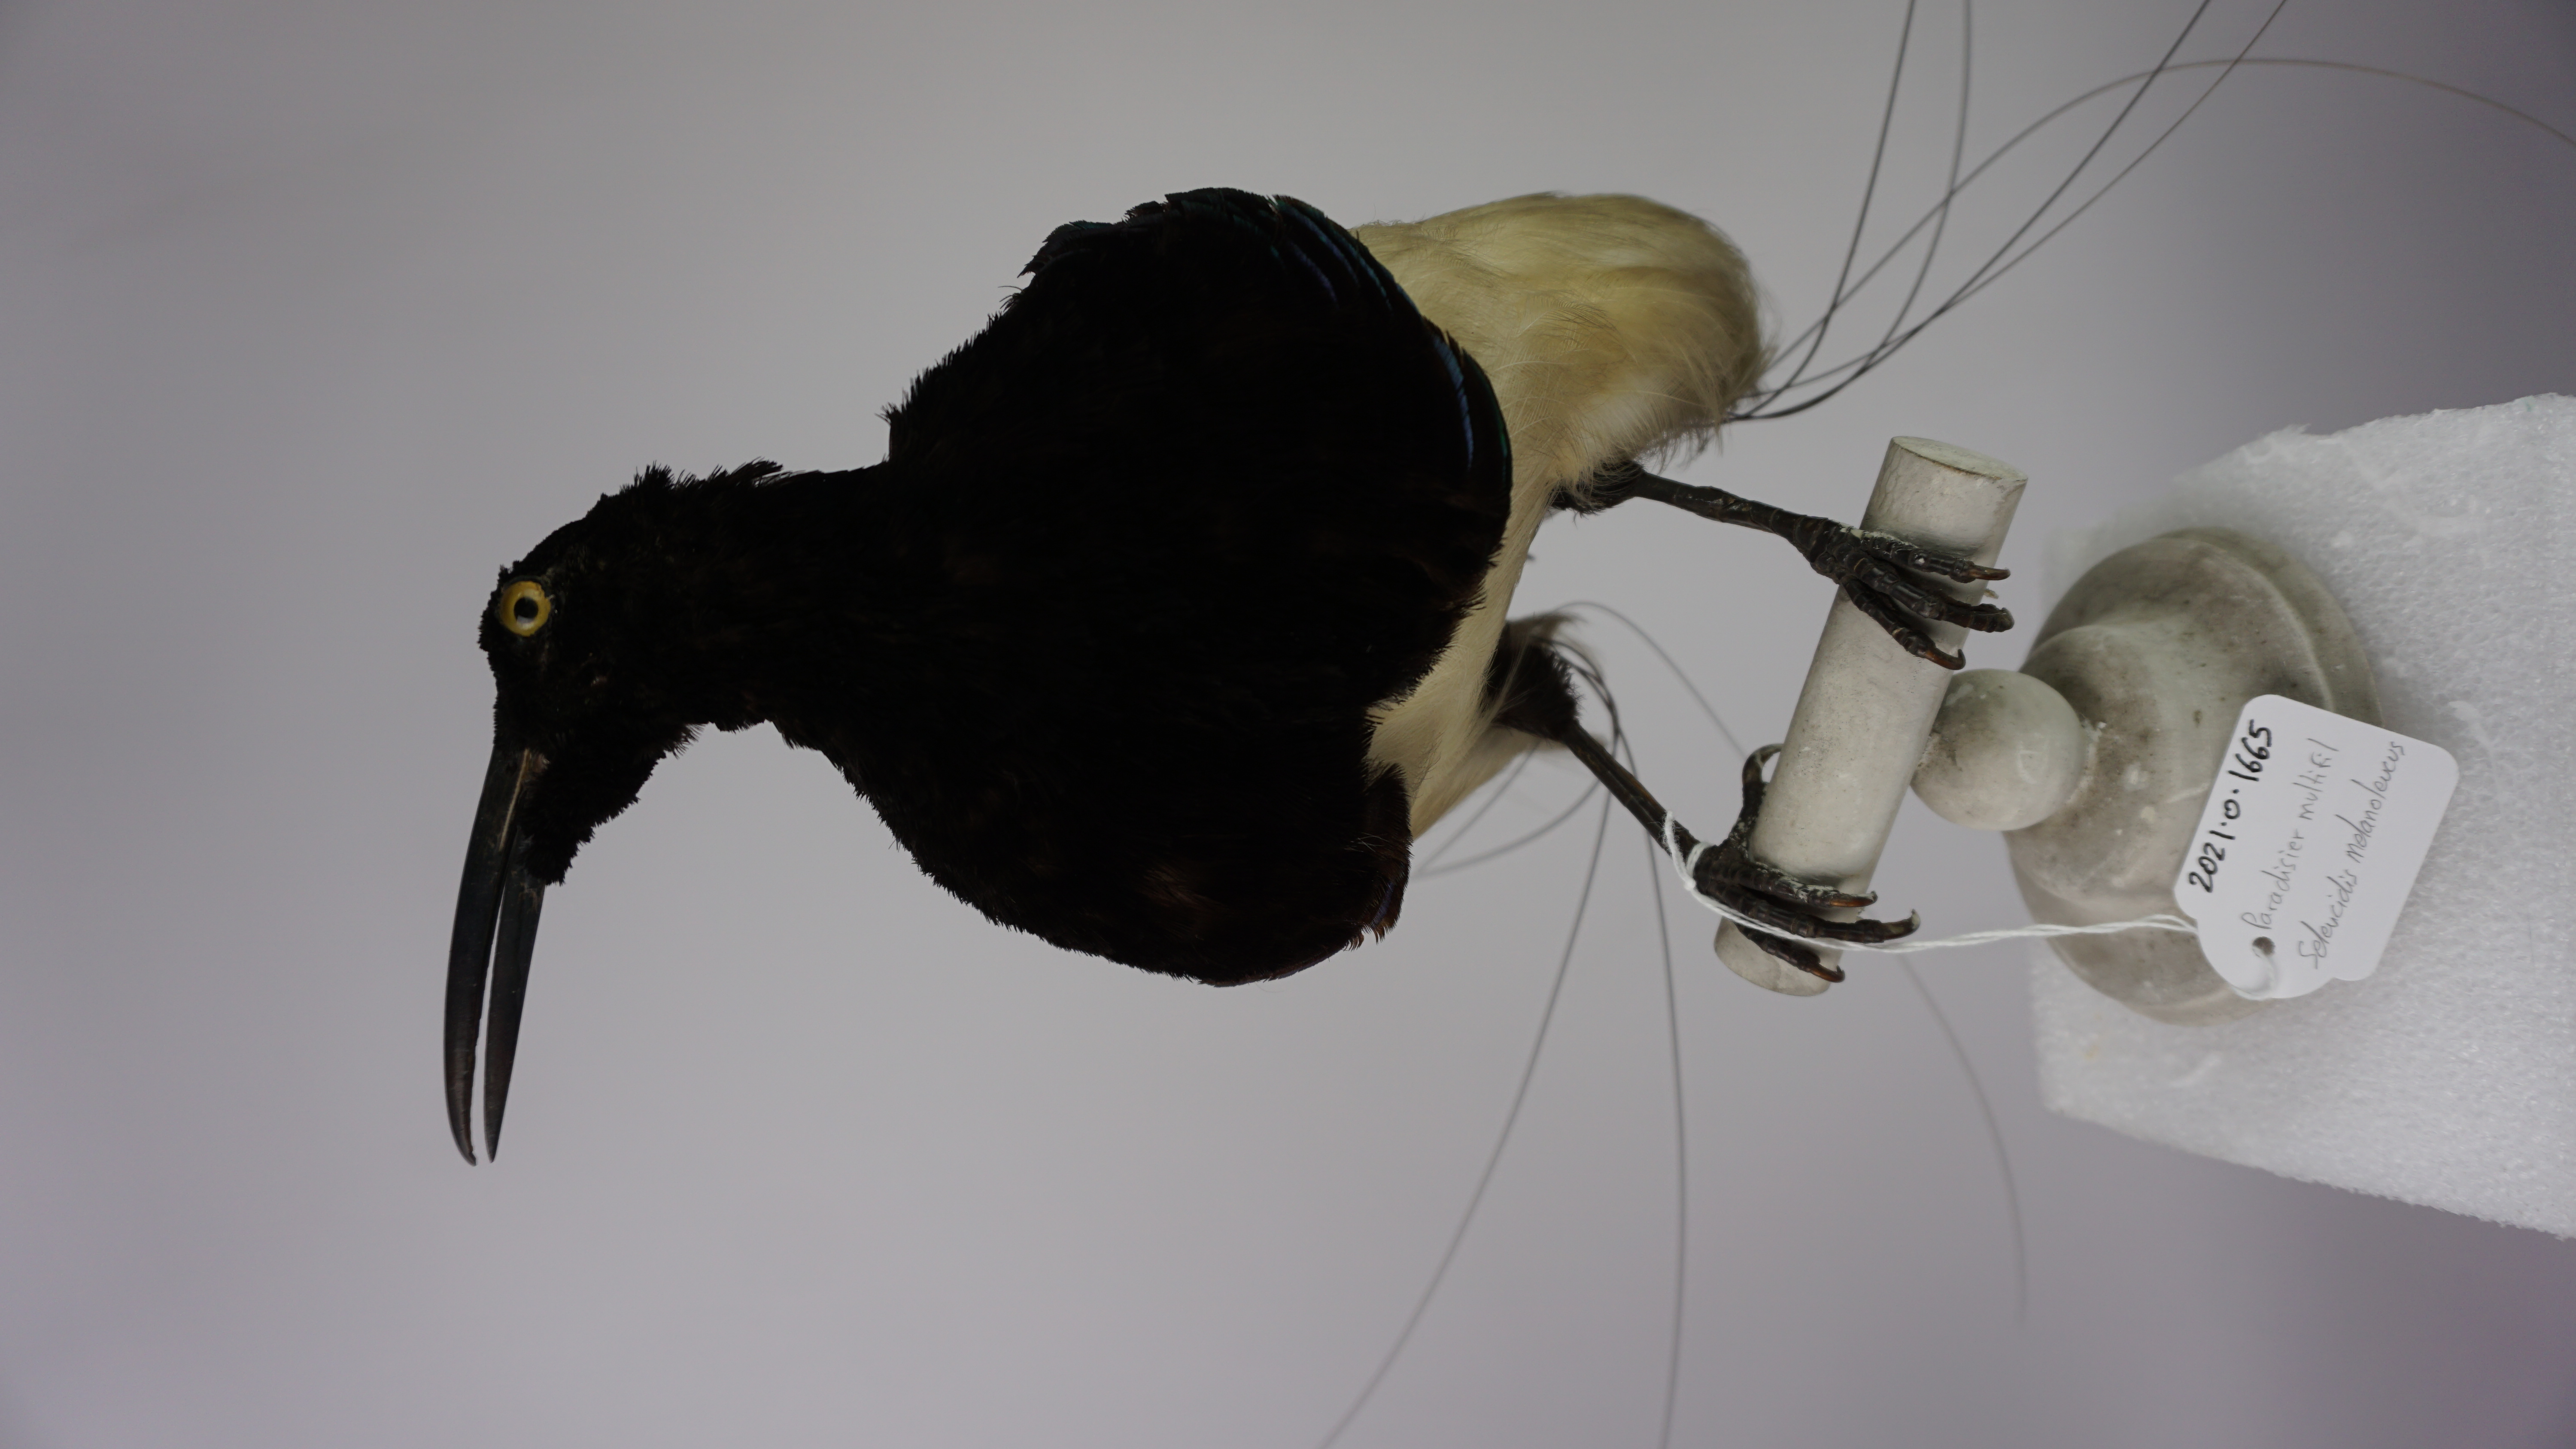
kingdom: Animalia
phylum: Chordata
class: Aves
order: Passeriformes
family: Paradisaeidae
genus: Seleucidis
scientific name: Seleucidis melanoleucus
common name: Twelve-wired bird-of-paradise
